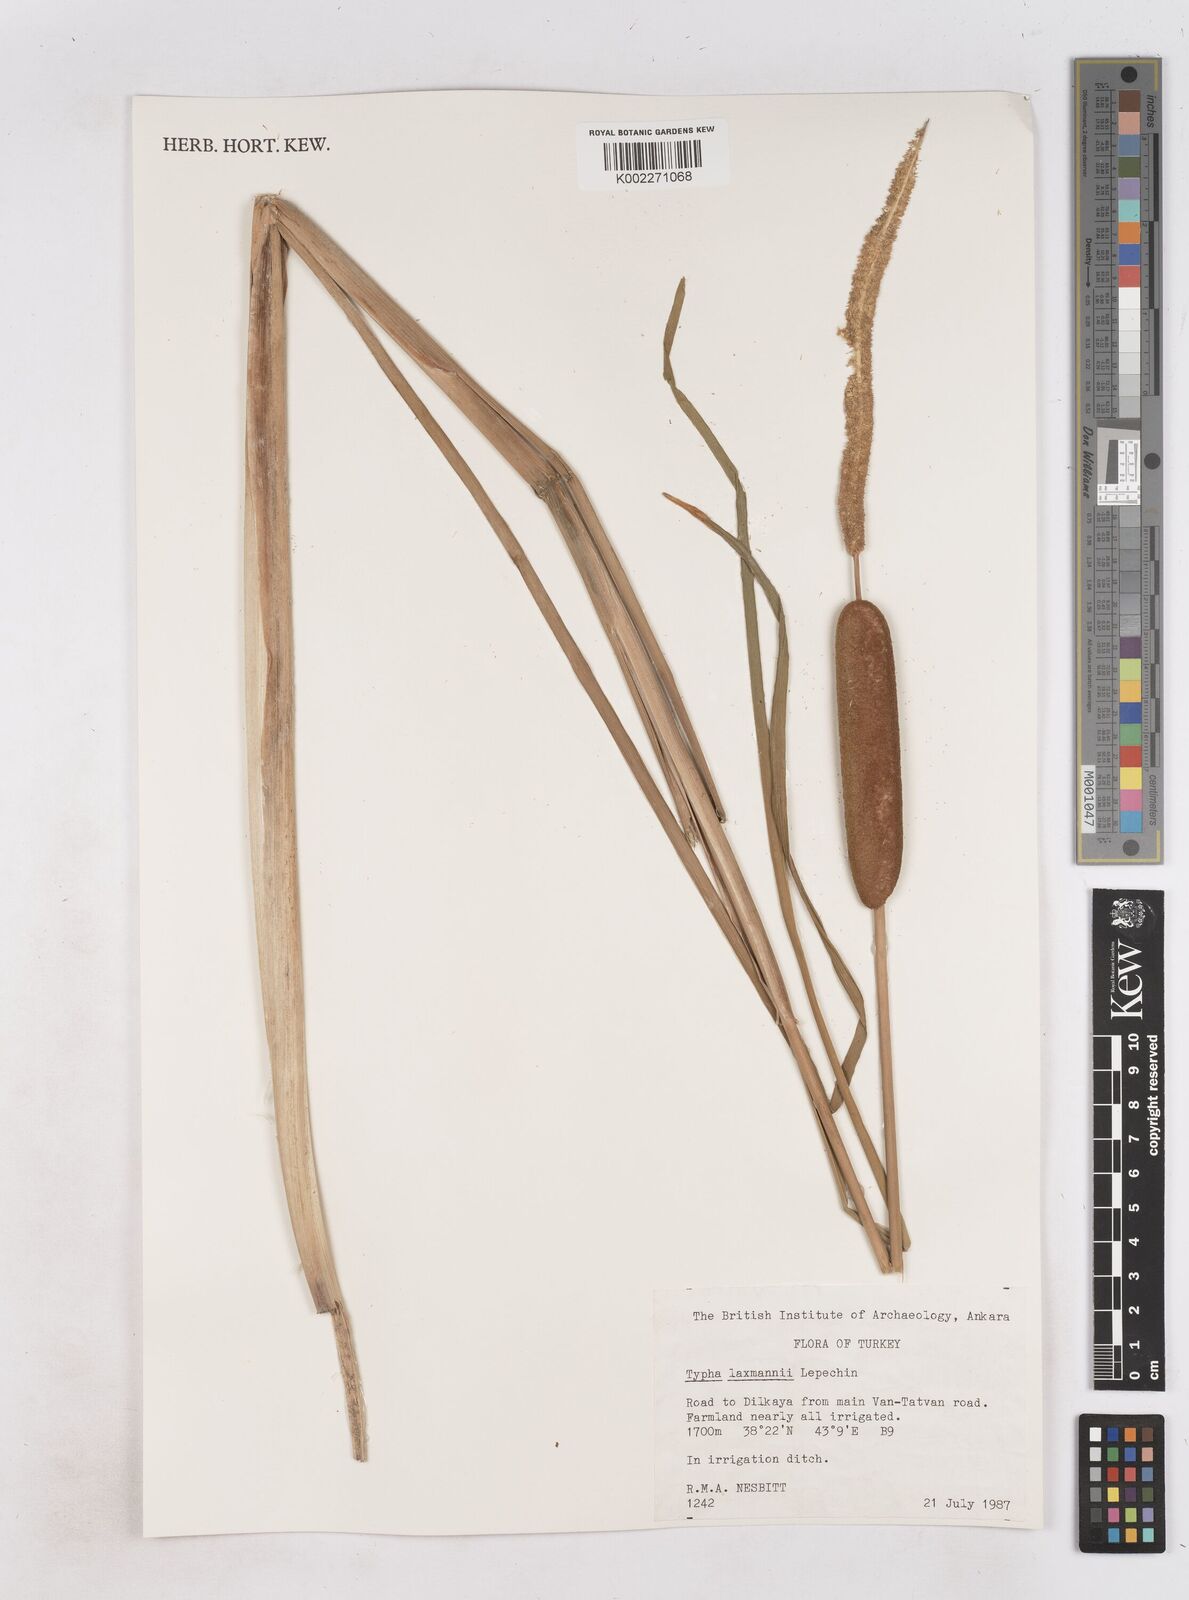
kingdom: Plantae
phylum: Tracheophyta
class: Liliopsida
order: Poales
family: Typhaceae
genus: Typha
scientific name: Typha laxmannii
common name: Laxman’s bulrush
